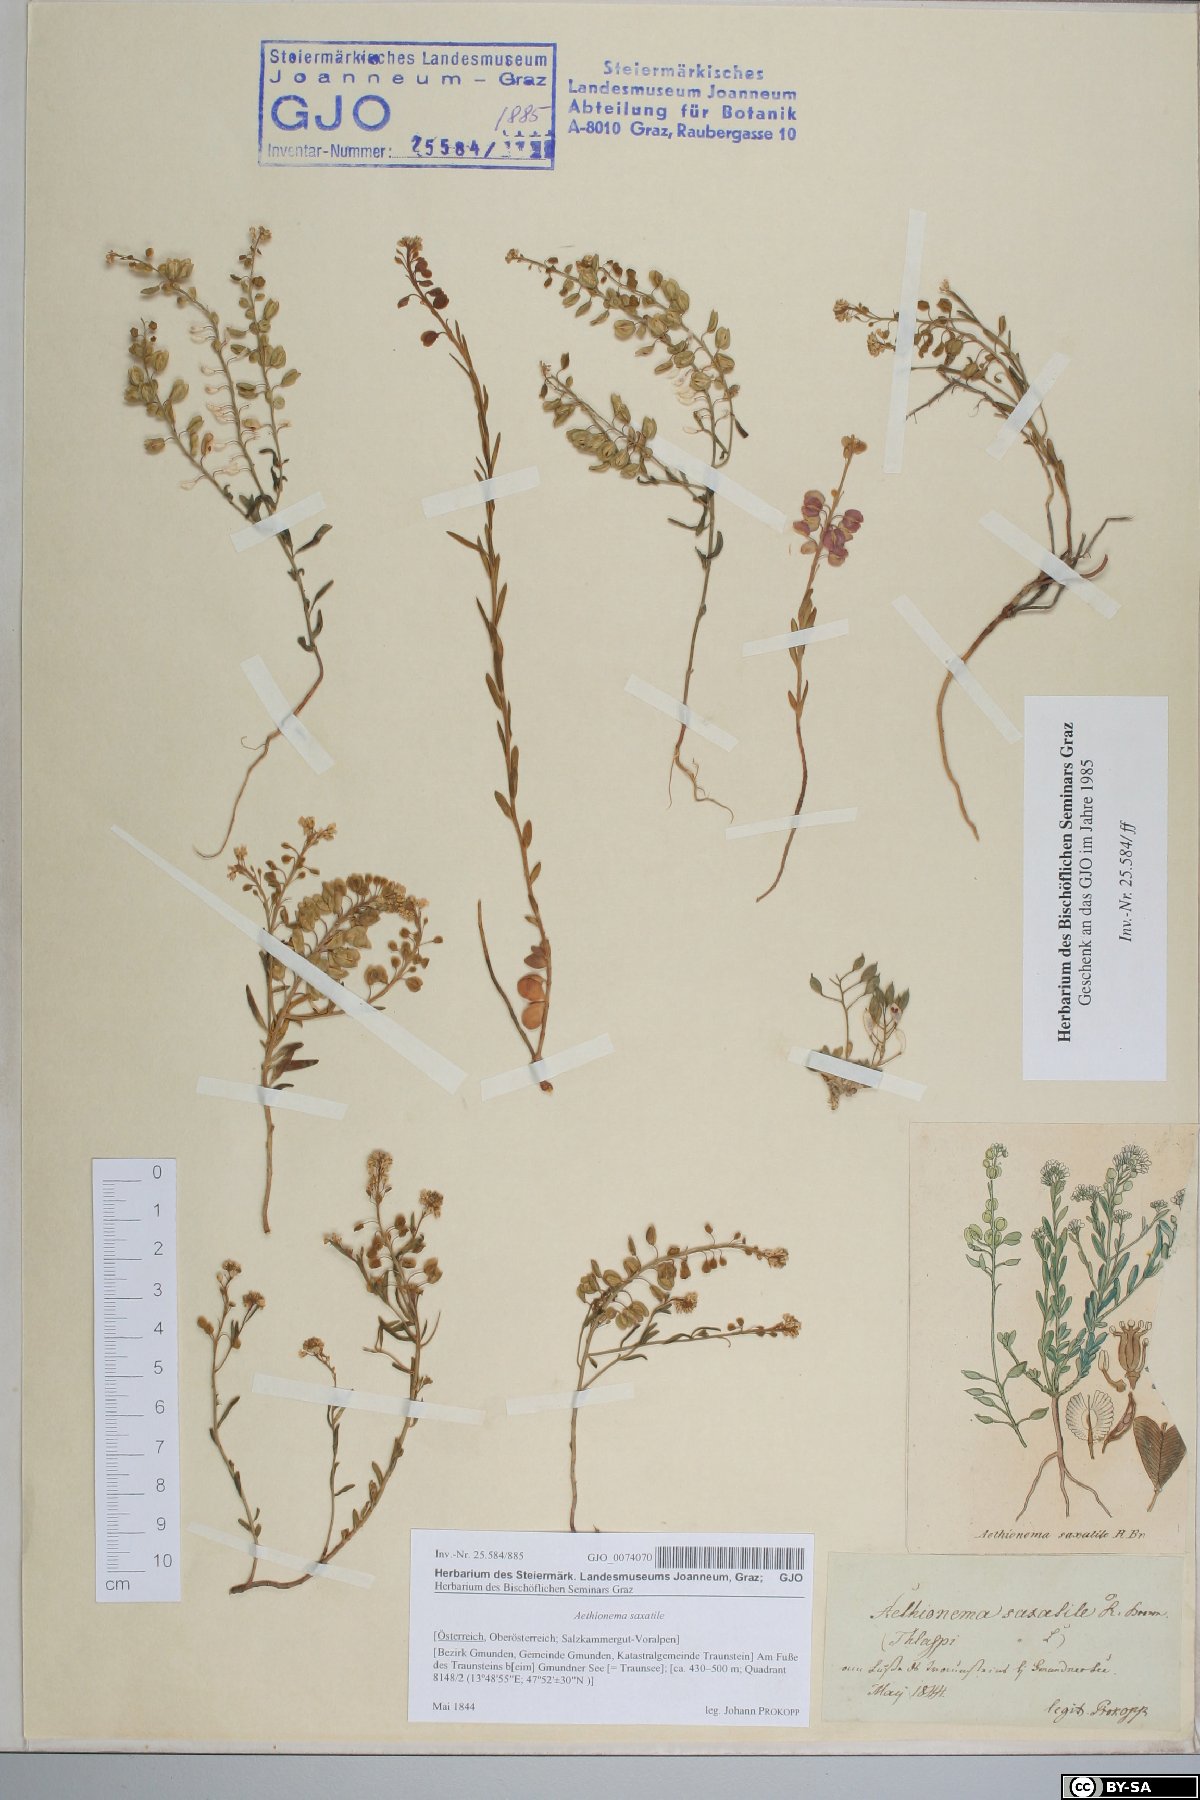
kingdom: Plantae
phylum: Tracheophyta
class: Magnoliopsida
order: Brassicales
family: Brassicaceae
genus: Aethionema
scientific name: Aethionema saxatile
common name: Burnt candytuft
